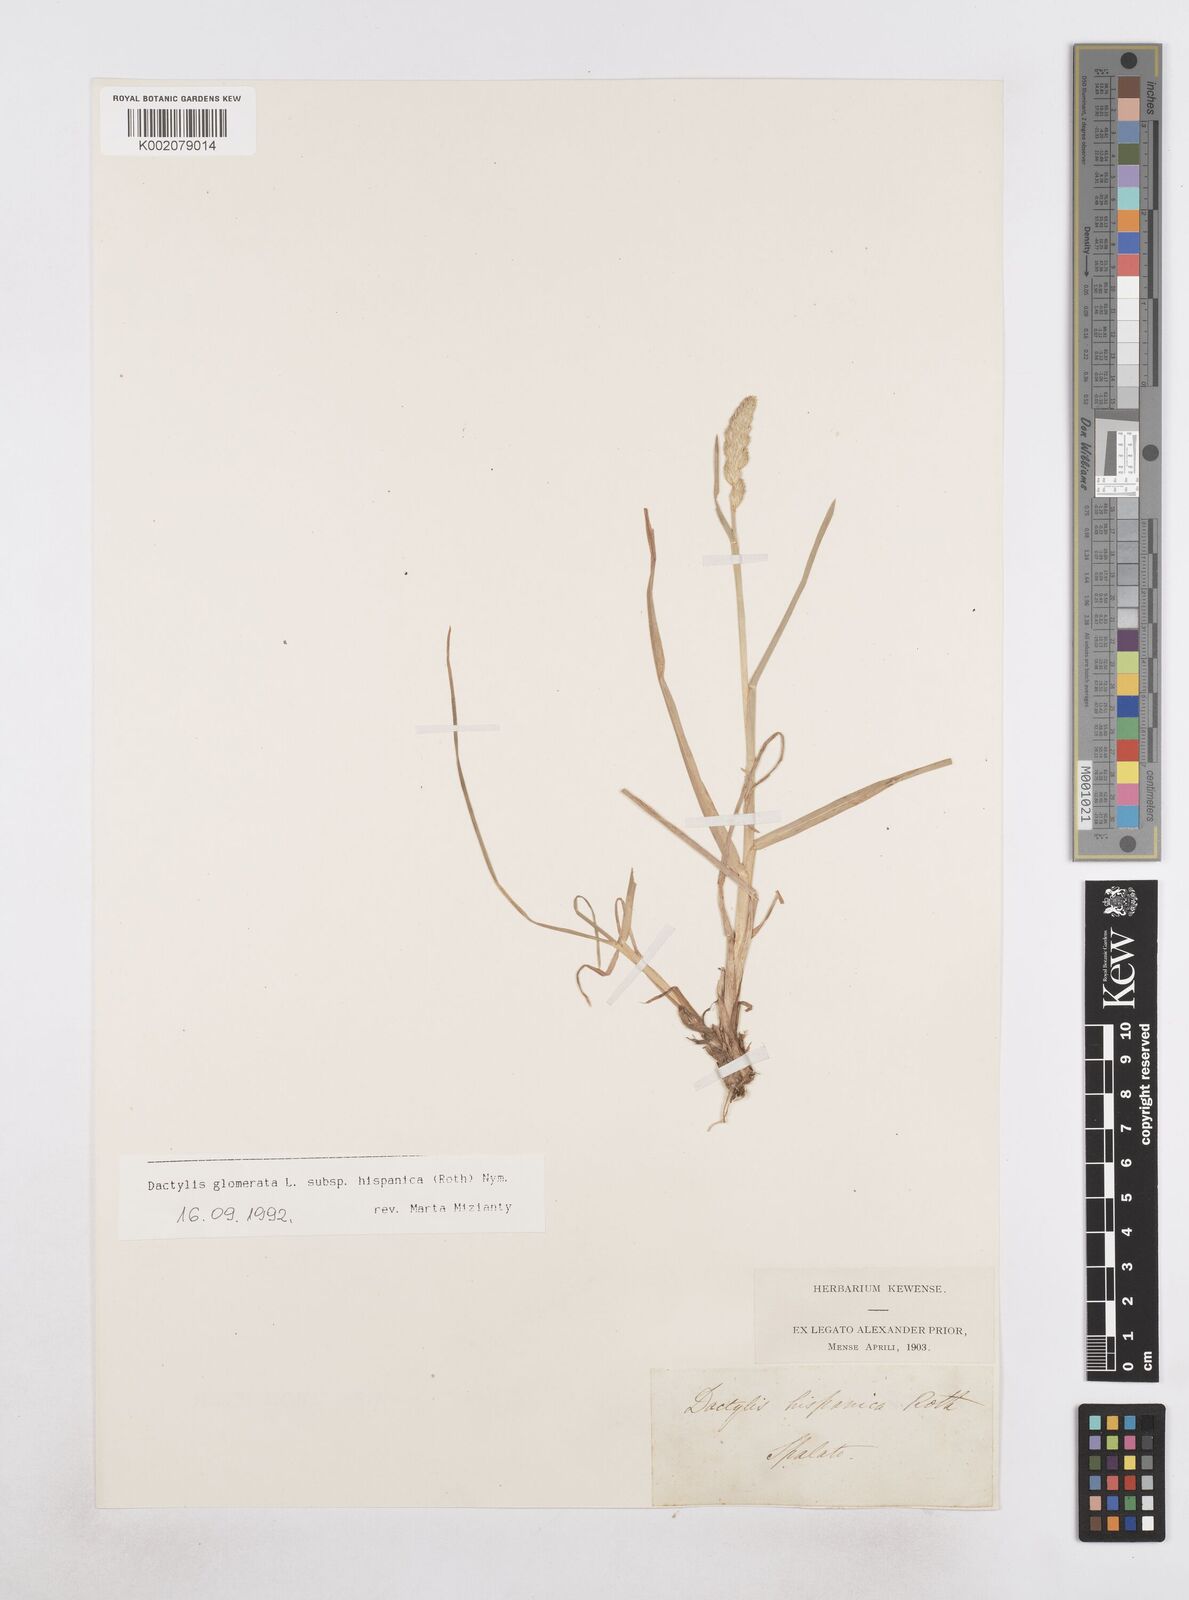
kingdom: Plantae
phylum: Tracheophyta
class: Liliopsida
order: Poales
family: Poaceae
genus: Dactylis
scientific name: Dactylis glomerata
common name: Orchardgrass
